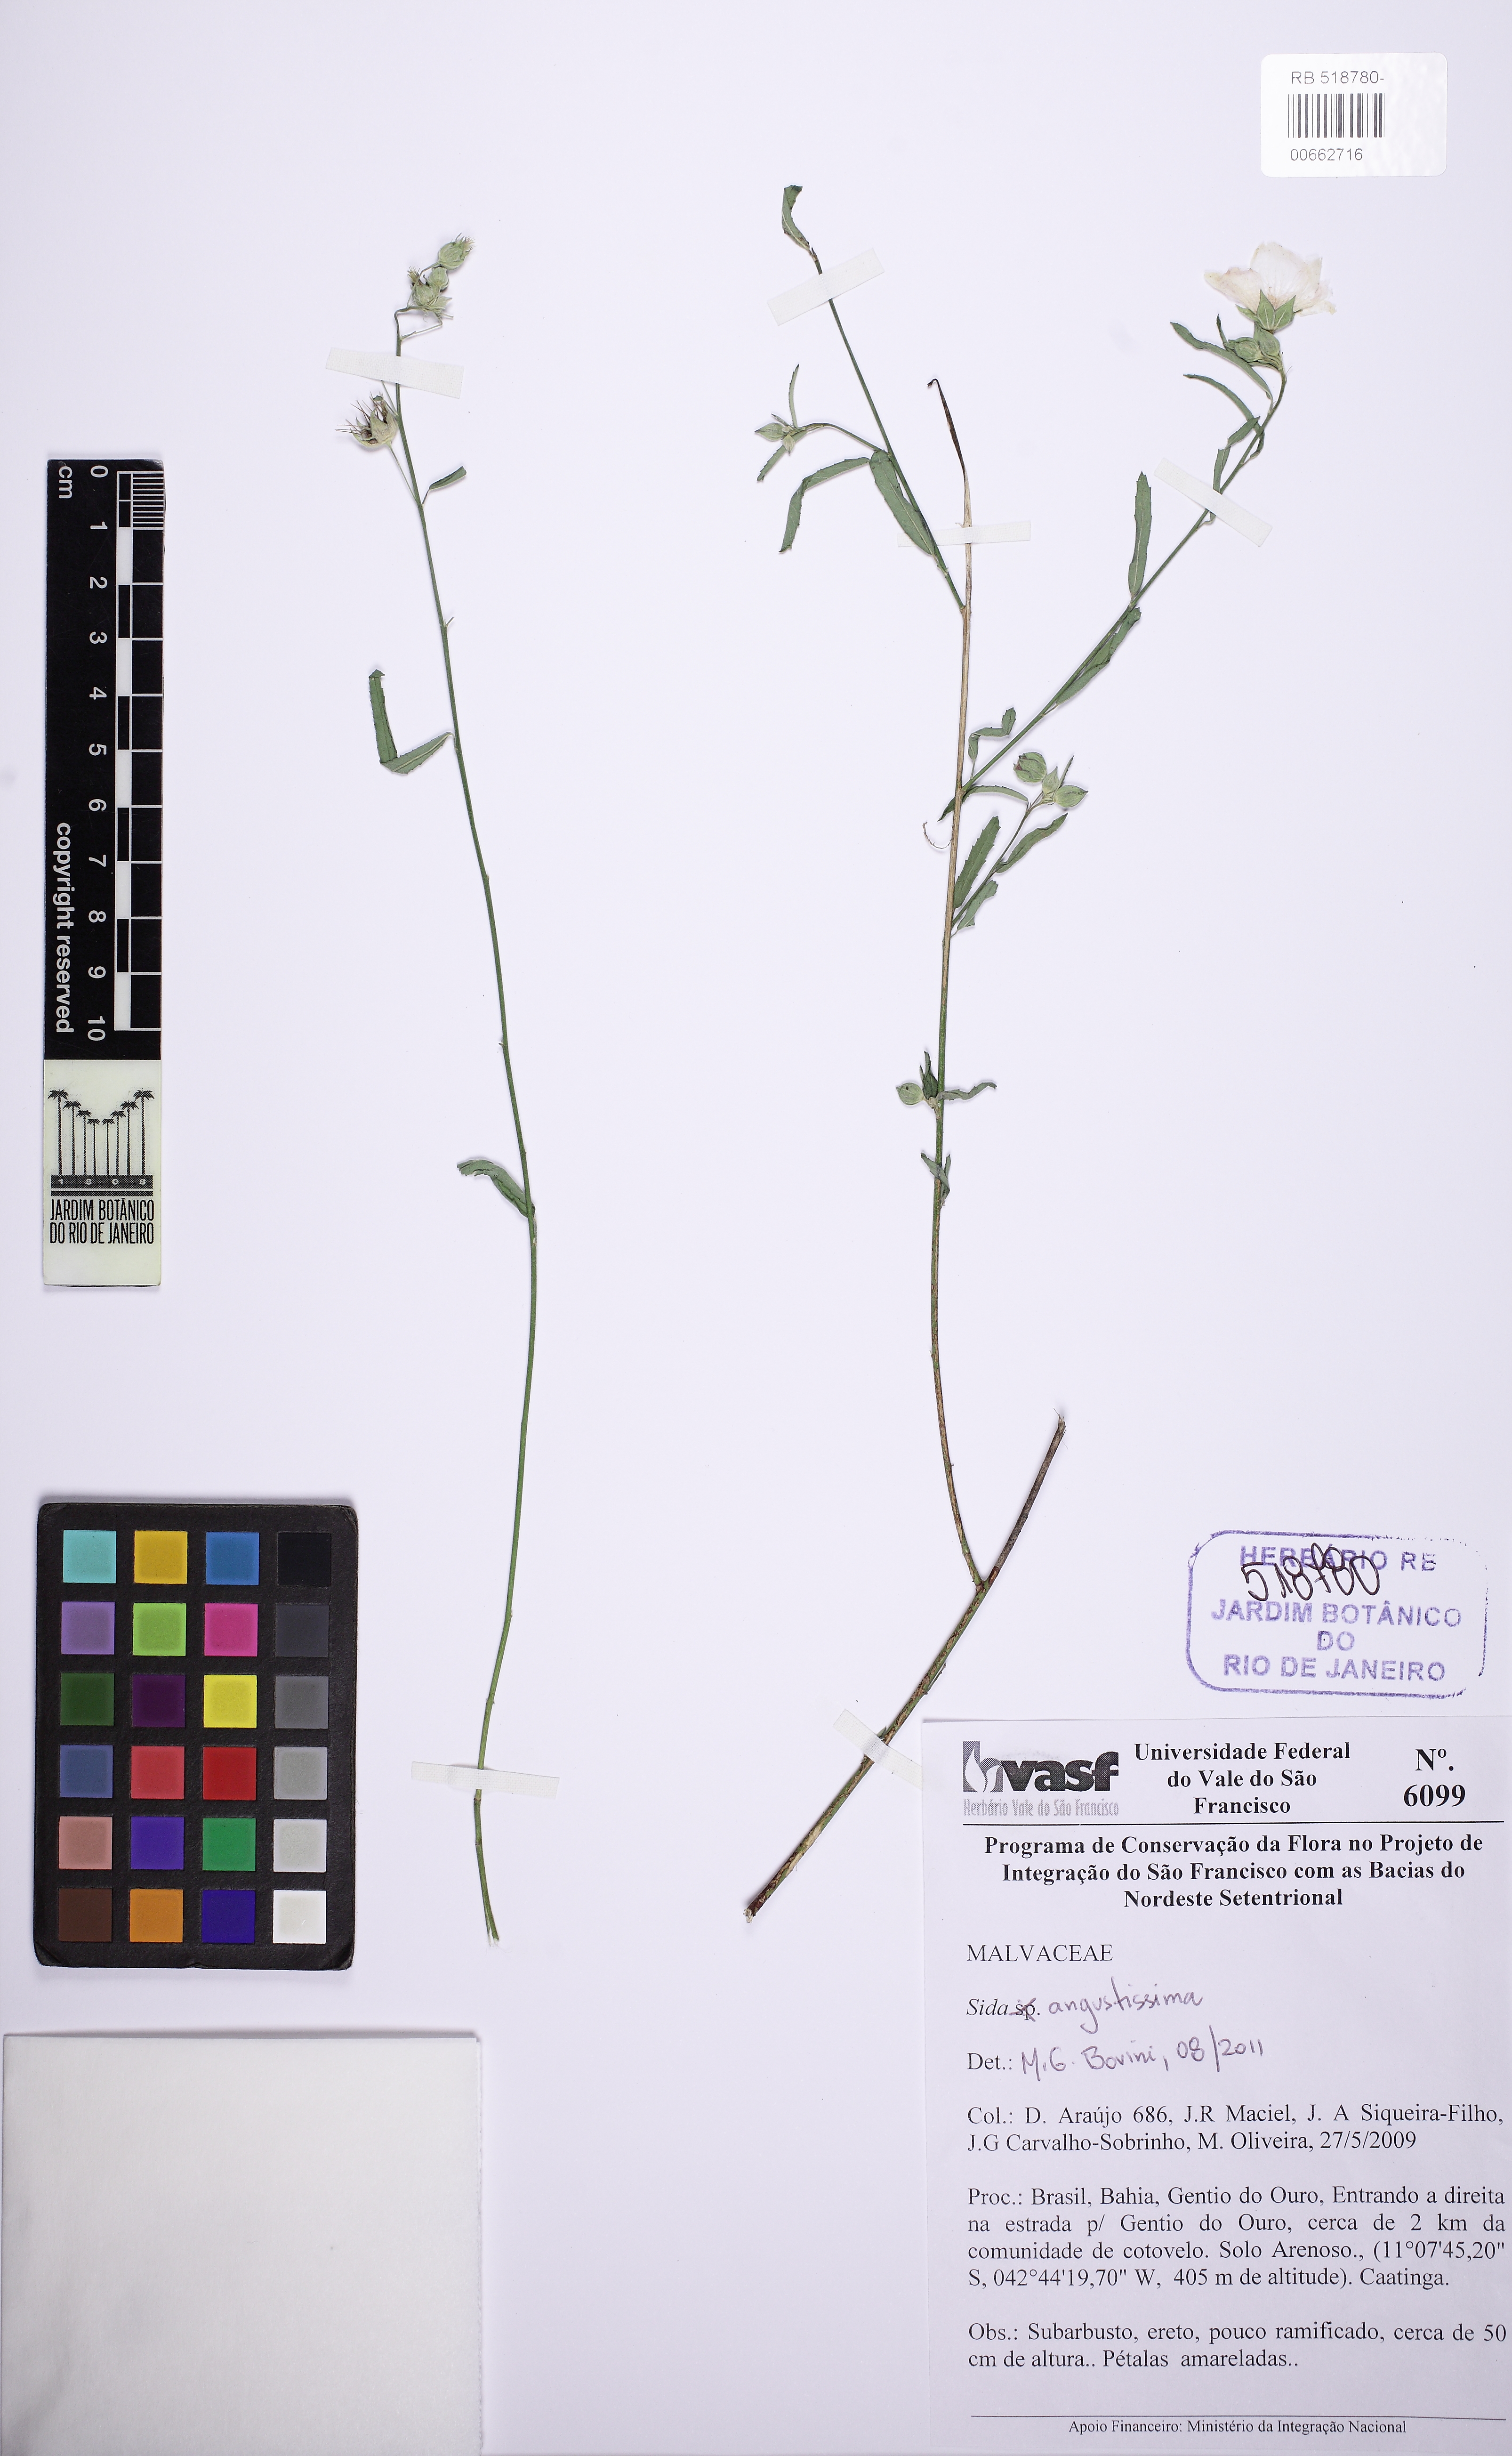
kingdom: Plantae
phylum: Tracheophyta
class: Magnoliopsida
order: Malvales
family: Malvaceae
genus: Sida
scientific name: Sida angustissima
